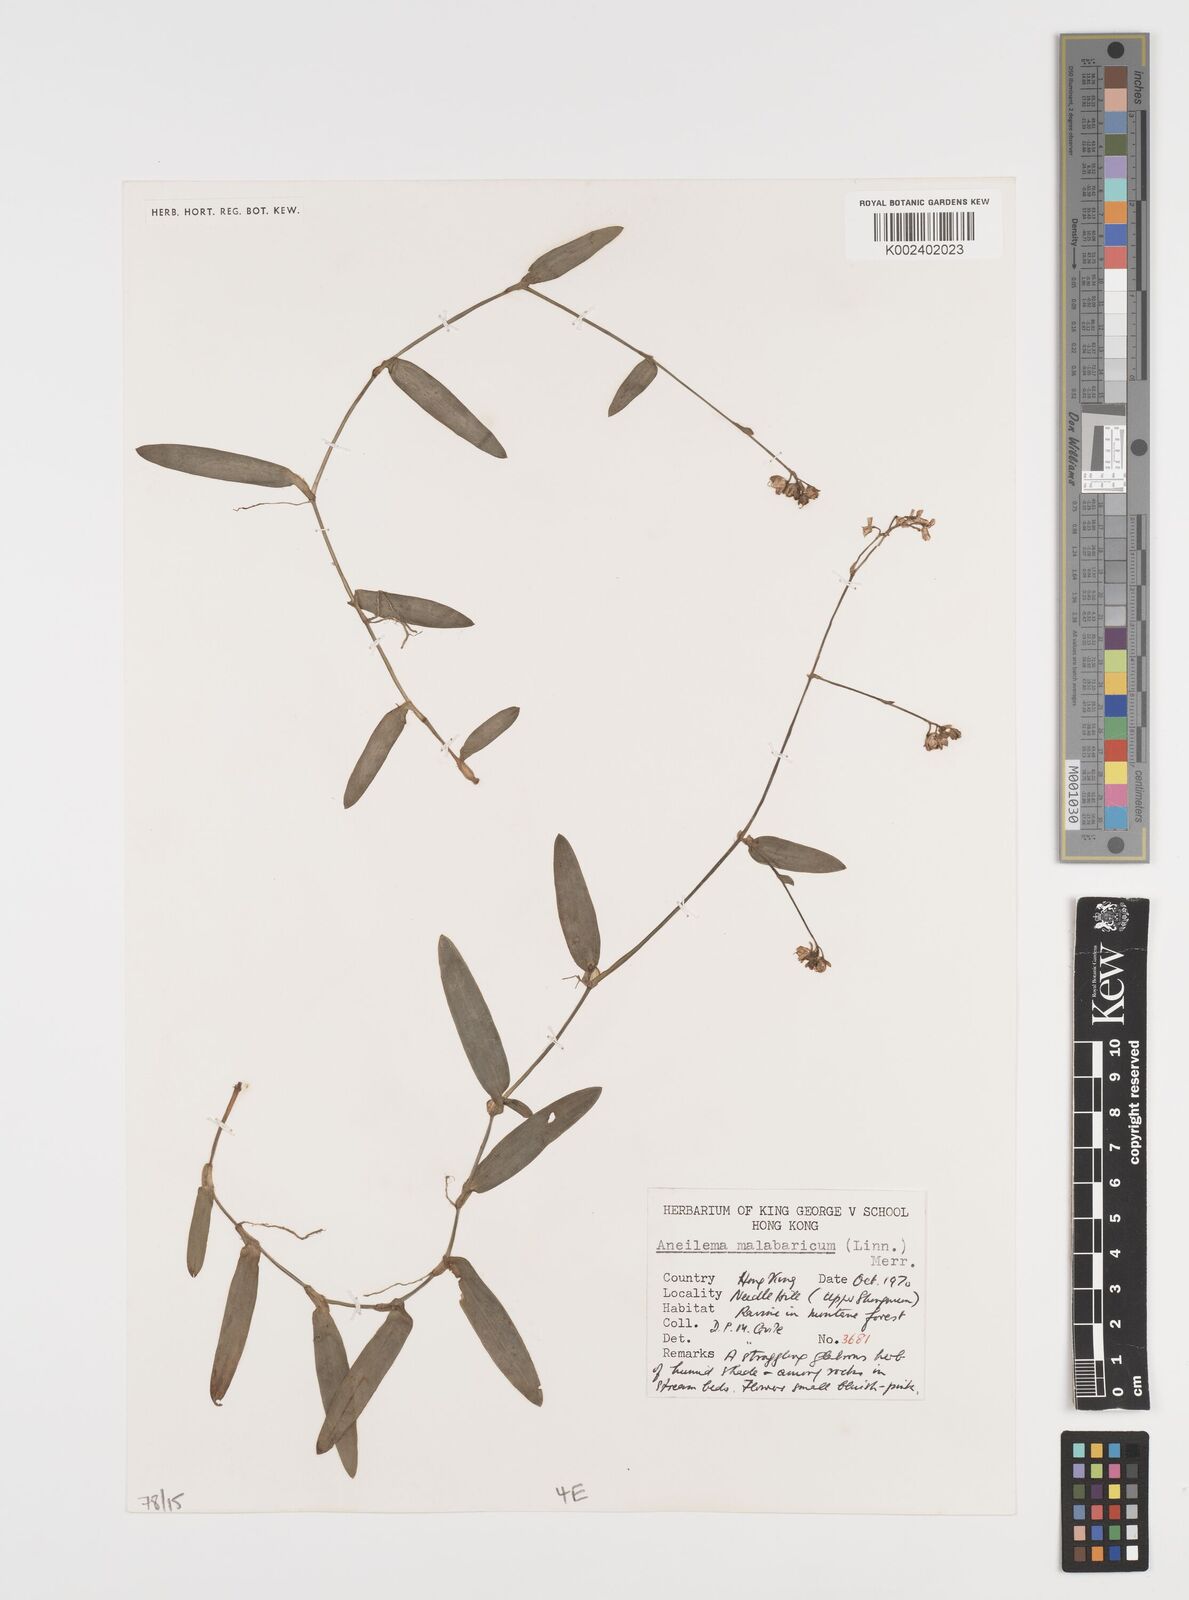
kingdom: Plantae
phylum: Tracheophyta
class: Liliopsida
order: Commelinales
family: Commelinaceae
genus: Murdannia
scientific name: Murdannia nudiflora
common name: Nakedstem dewflower
